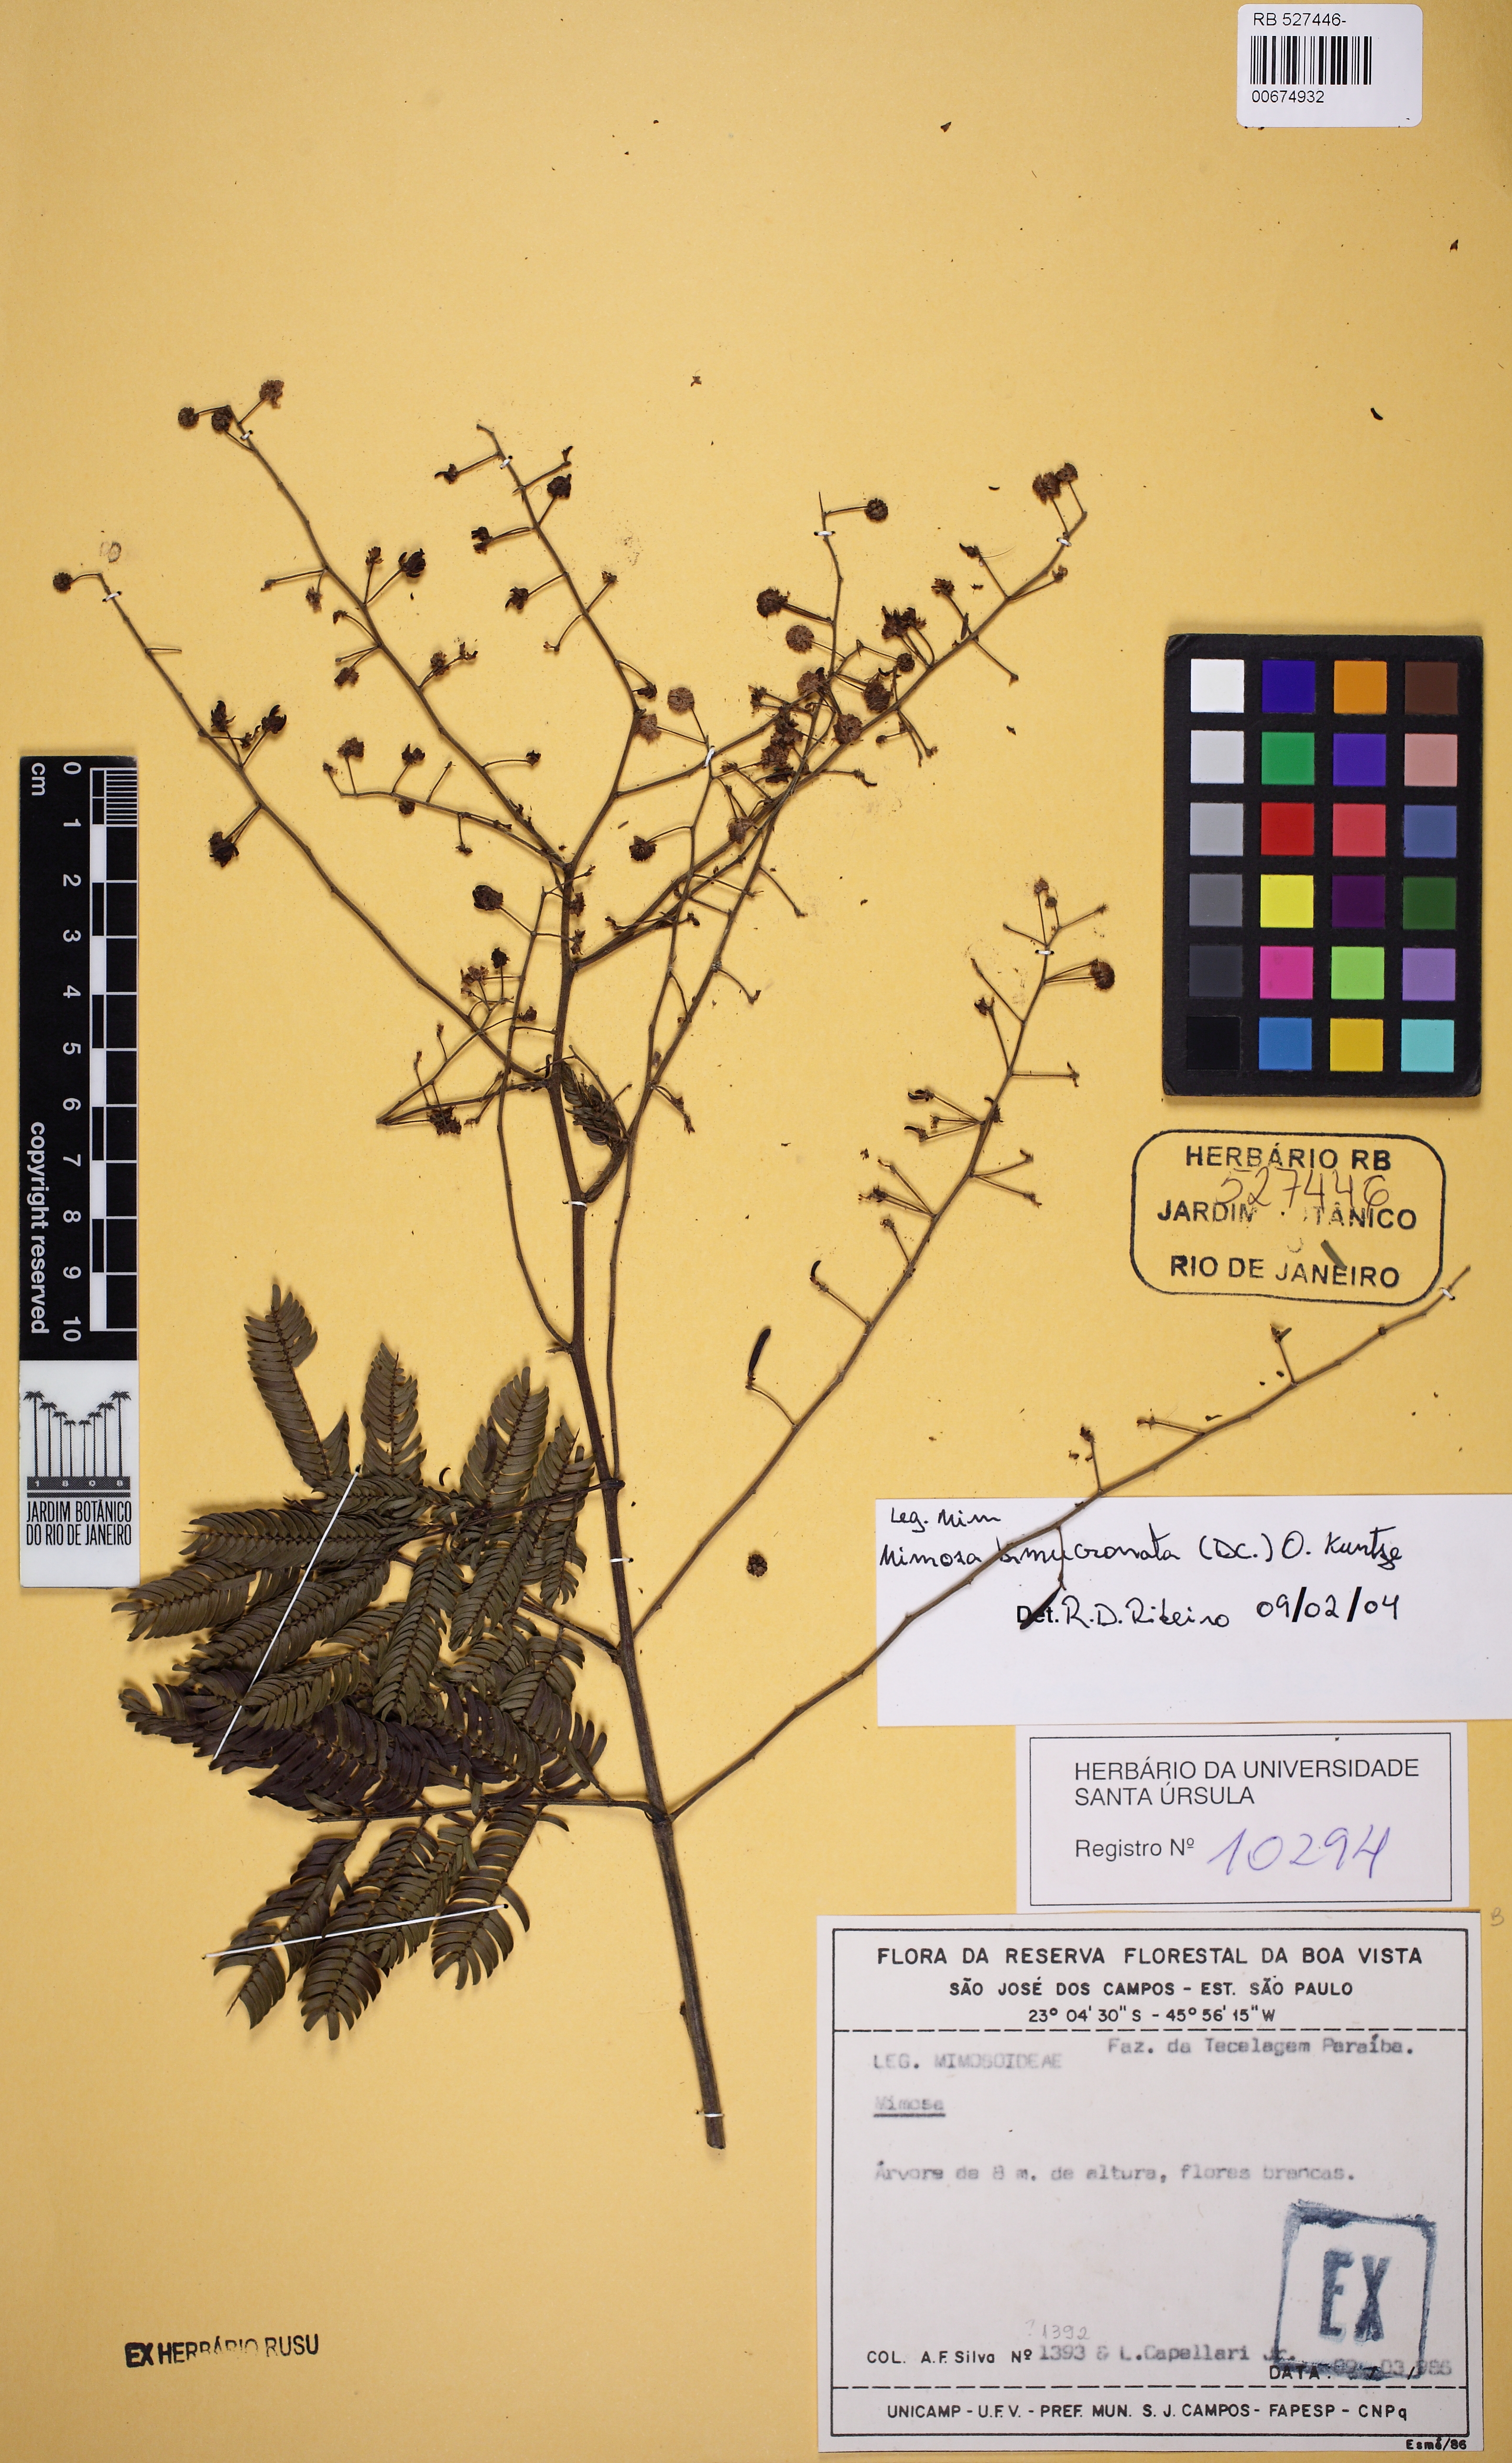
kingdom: Plantae
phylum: Tracheophyta
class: Magnoliopsida
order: Fabales
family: Fabaceae
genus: Mimosa
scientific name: Mimosa bimucronata
